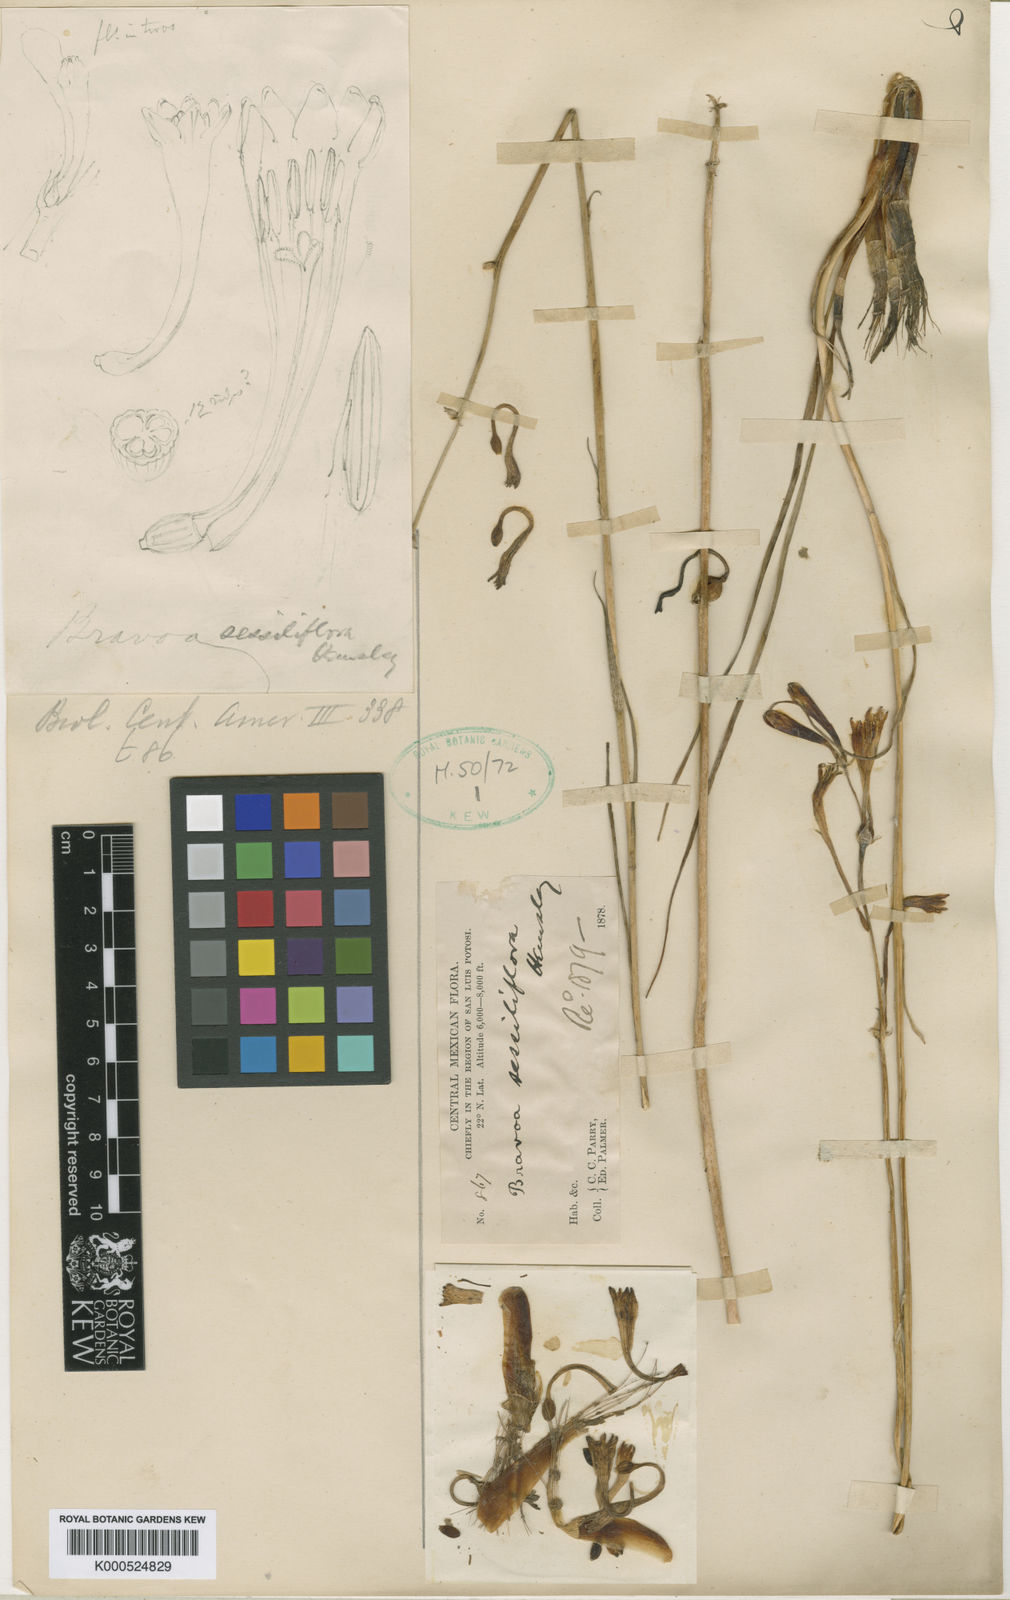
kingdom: Plantae
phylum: Tracheophyta
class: Liliopsida
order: Asparagales
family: Asparagaceae
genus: Agave
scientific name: Agave apedicellata
